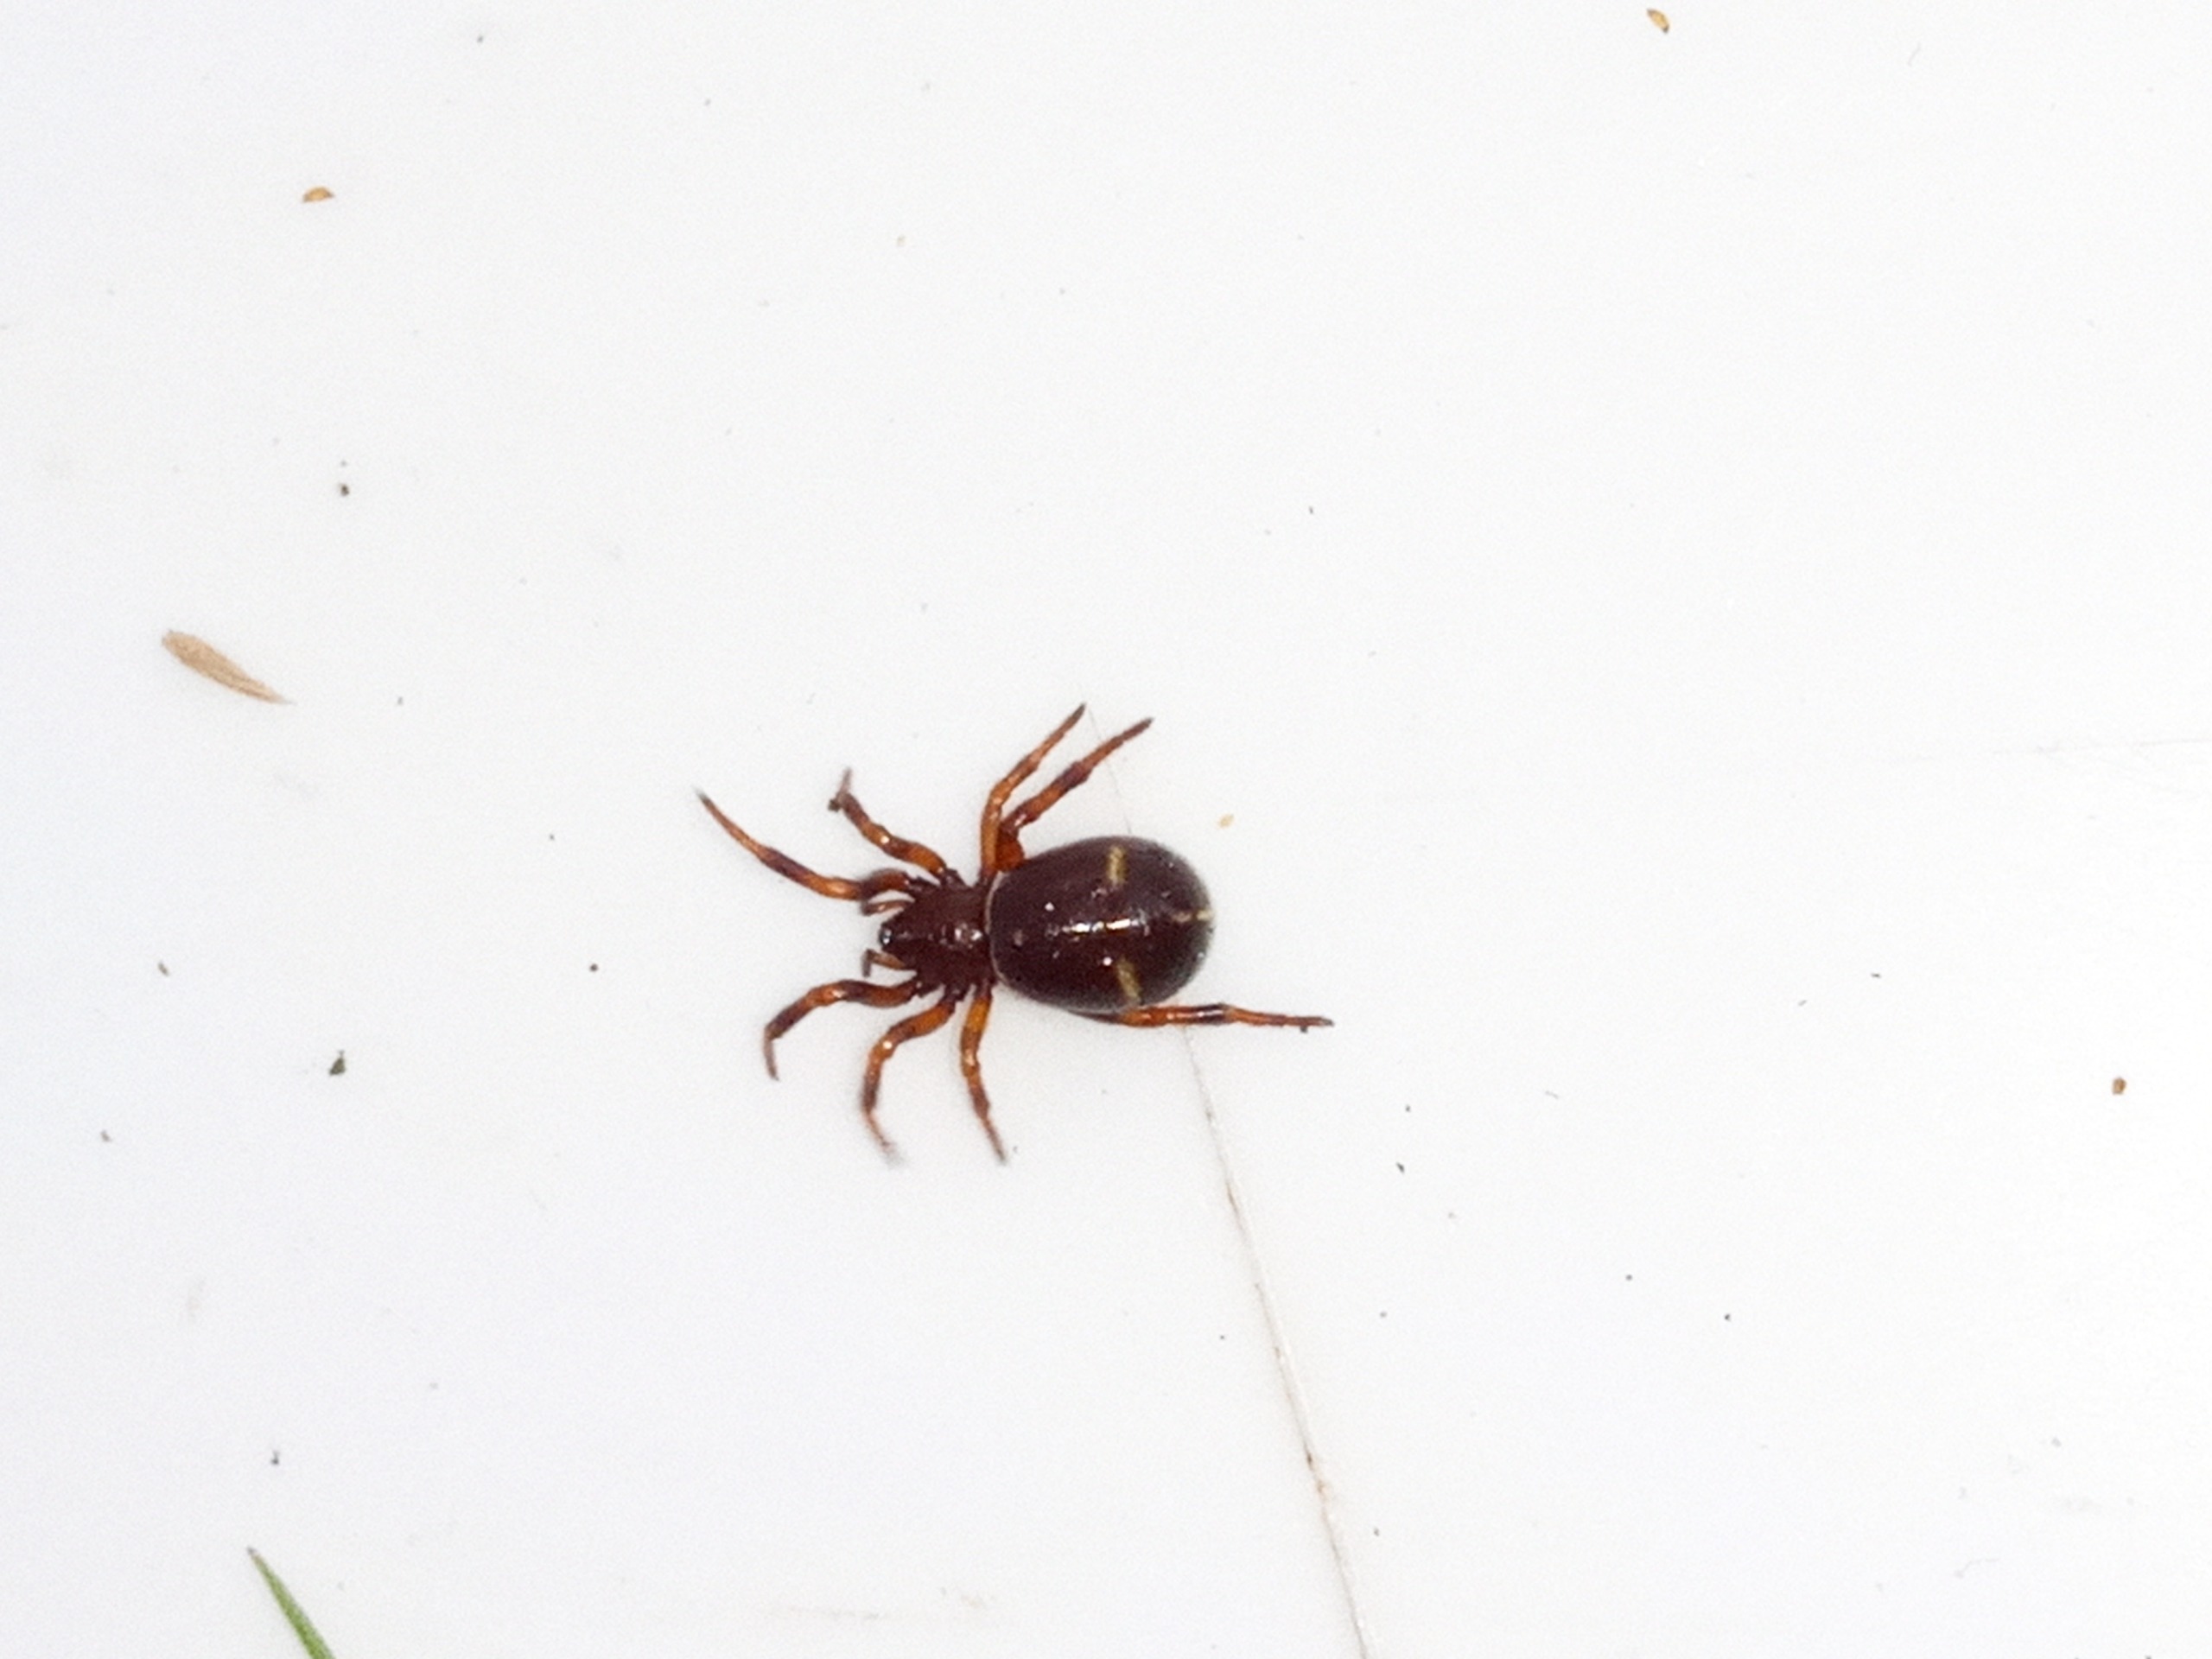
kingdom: Animalia
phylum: Arthropoda
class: Arachnida
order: Araneae
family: Theridiidae
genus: Asagena
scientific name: Asagena phalerata
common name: Smuk voksedderkop
